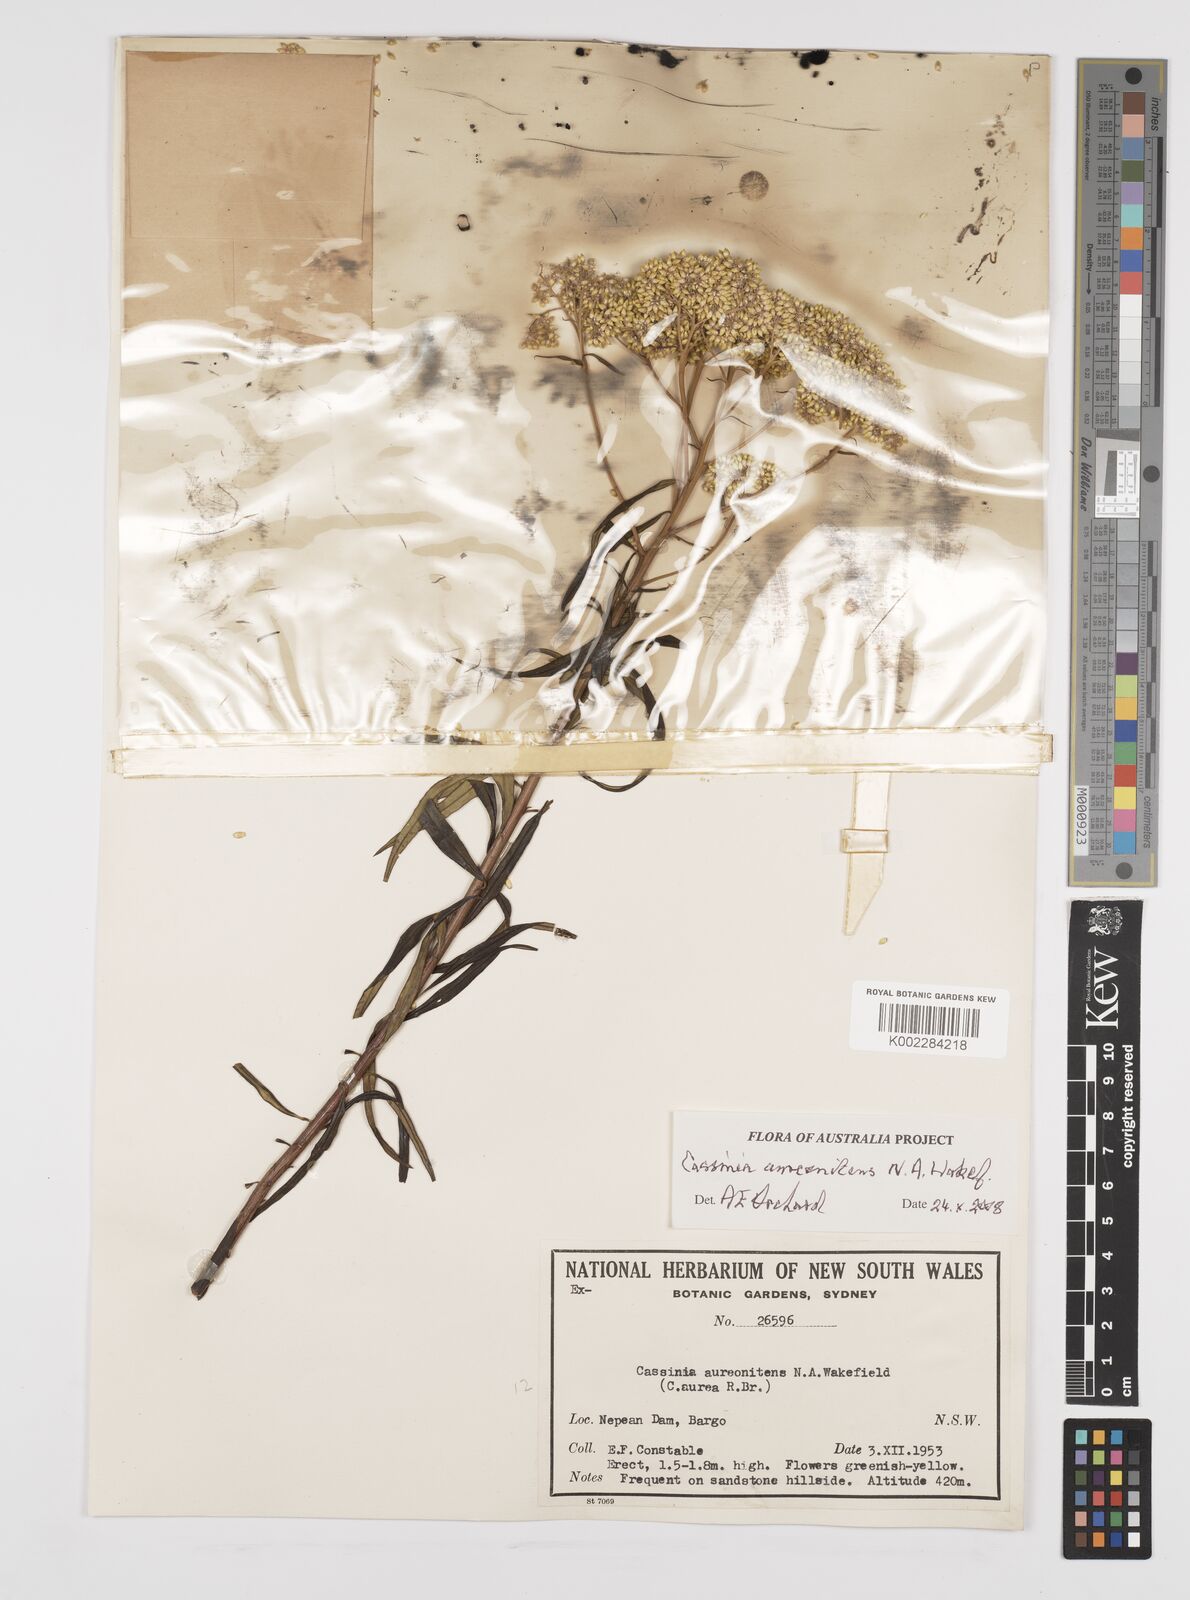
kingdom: Plantae
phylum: Tracheophyta
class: Magnoliopsida
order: Asterales
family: Asteraceae
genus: Cassinia
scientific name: Cassinia aureonitens
